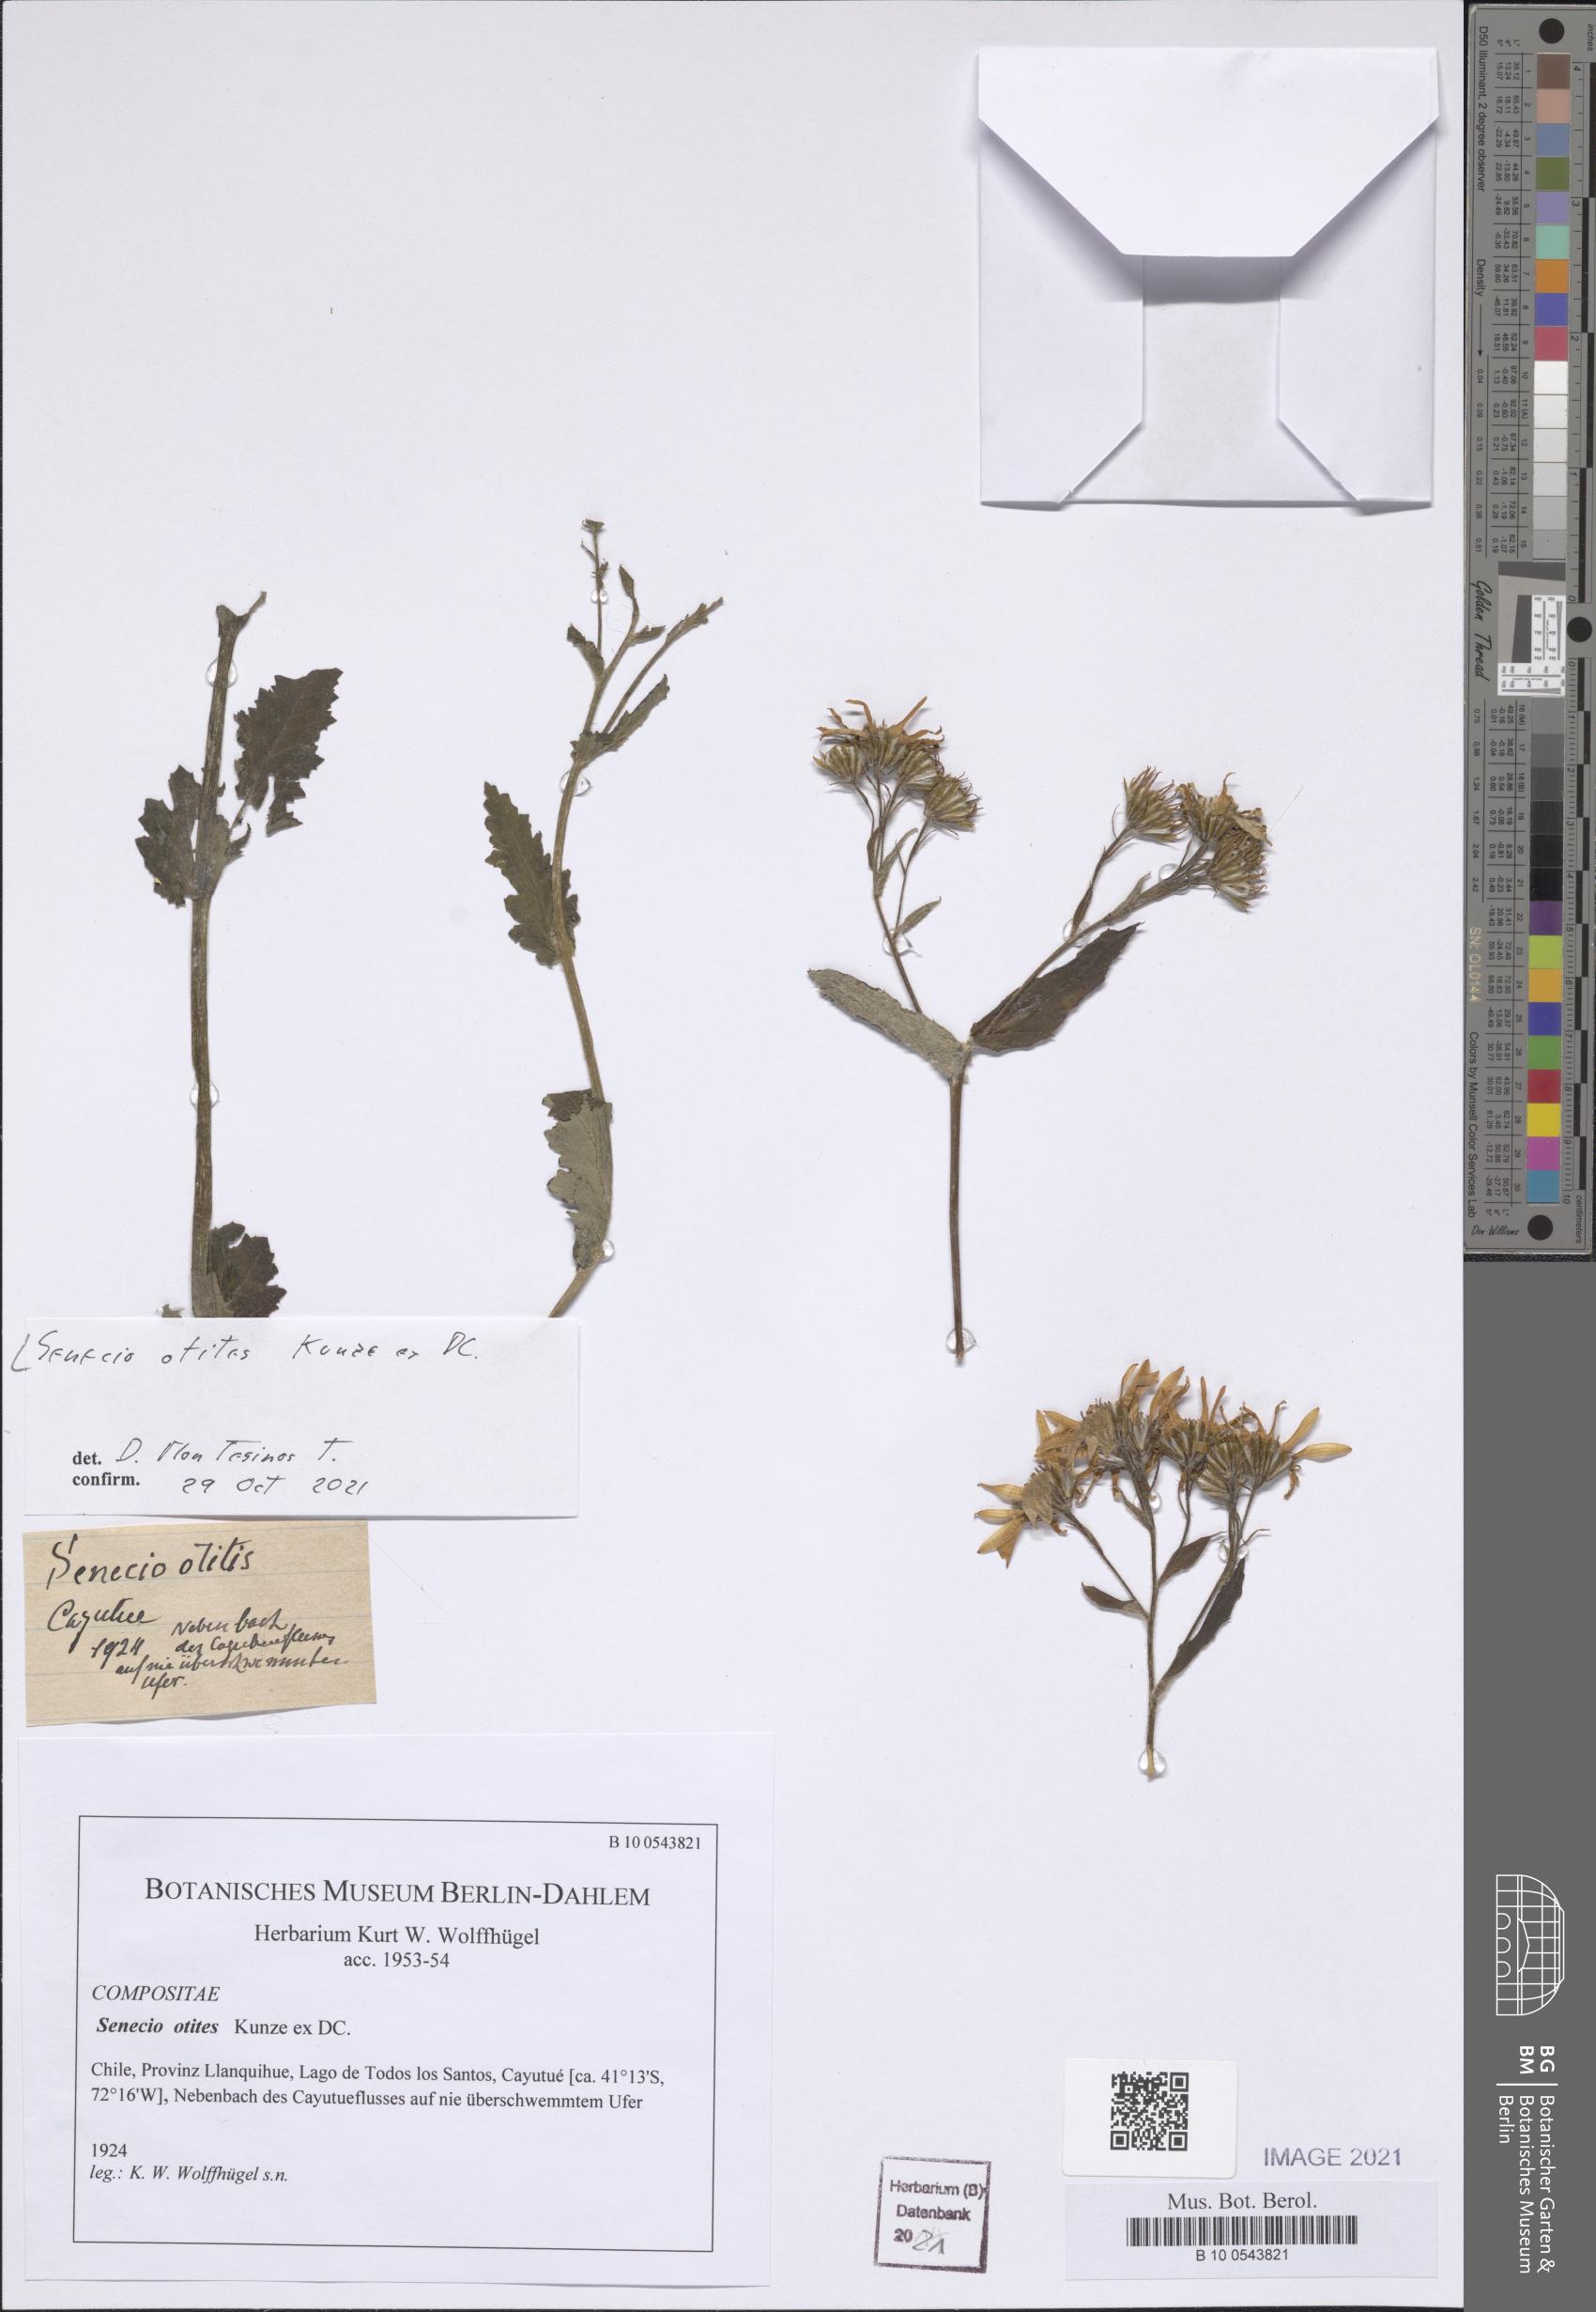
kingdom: Plantae
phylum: Tracheophyta
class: Magnoliopsida
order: Asterales
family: Asteraceae
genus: Senecio
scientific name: Senecio otites
